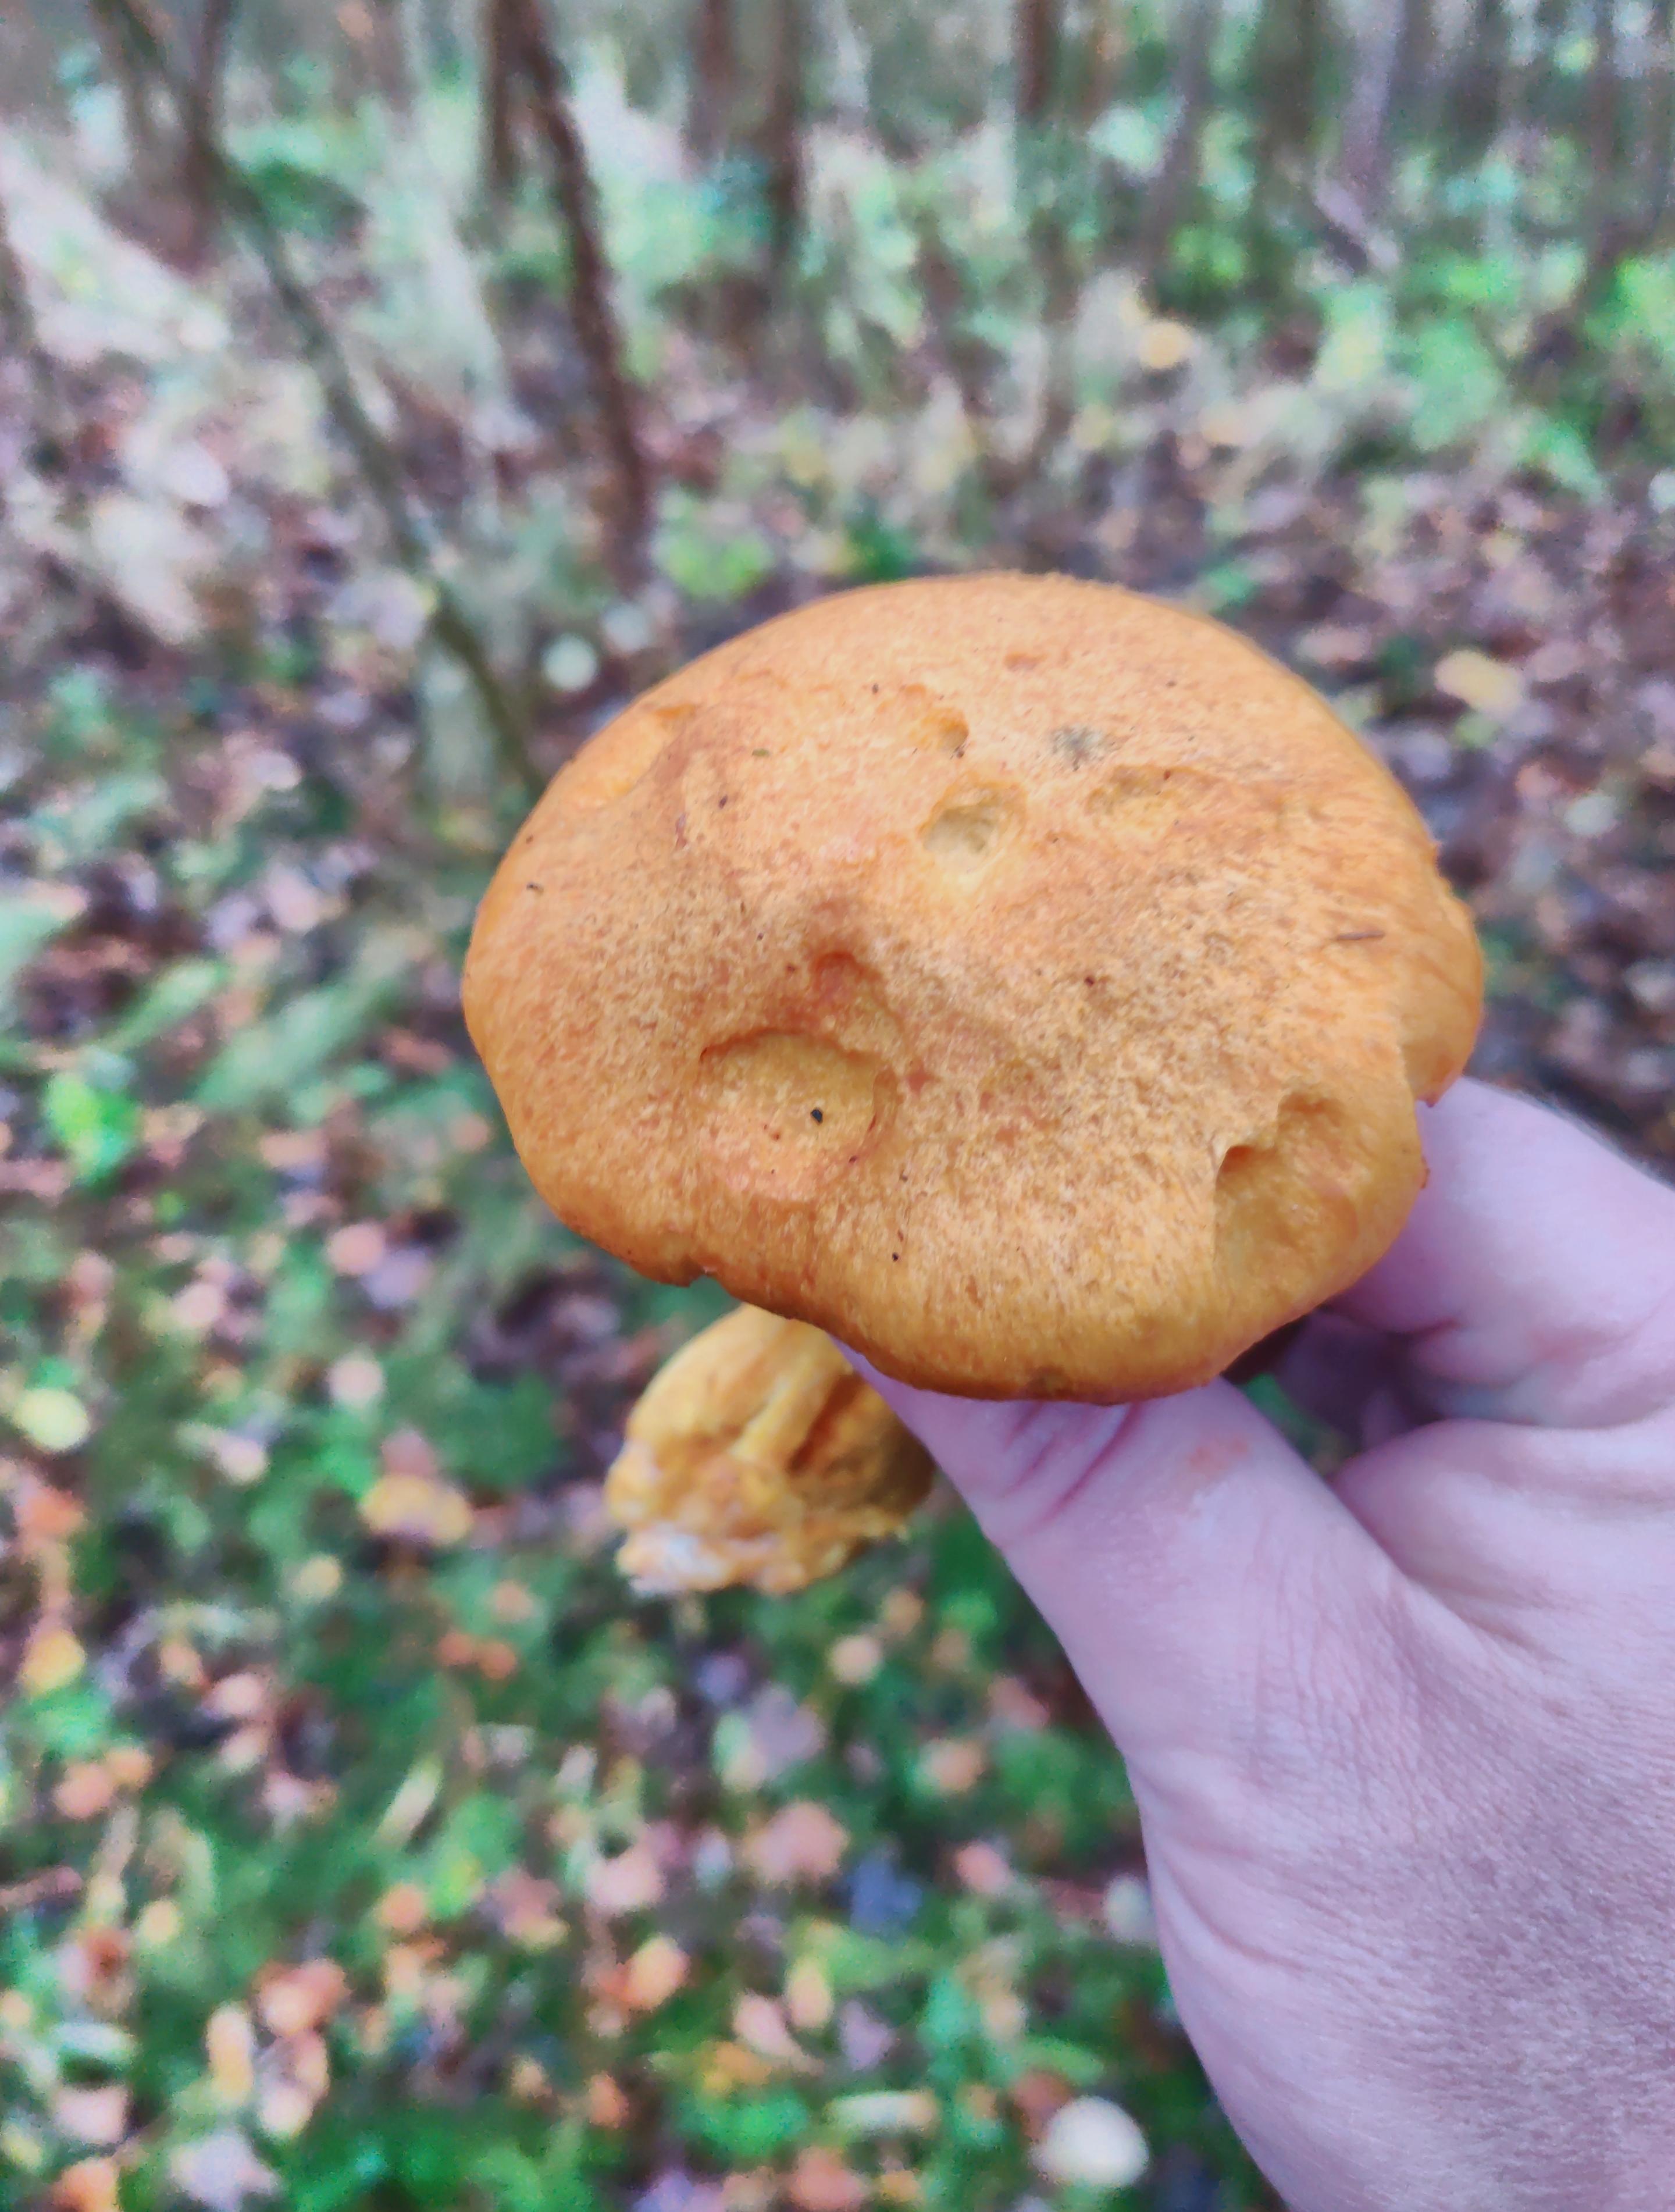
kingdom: Fungi
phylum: Basidiomycota
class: Agaricomycetes
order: Agaricales
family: Hymenogastraceae
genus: Gymnopilus
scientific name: Gymnopilus spectabilis
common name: fibret flammehat
